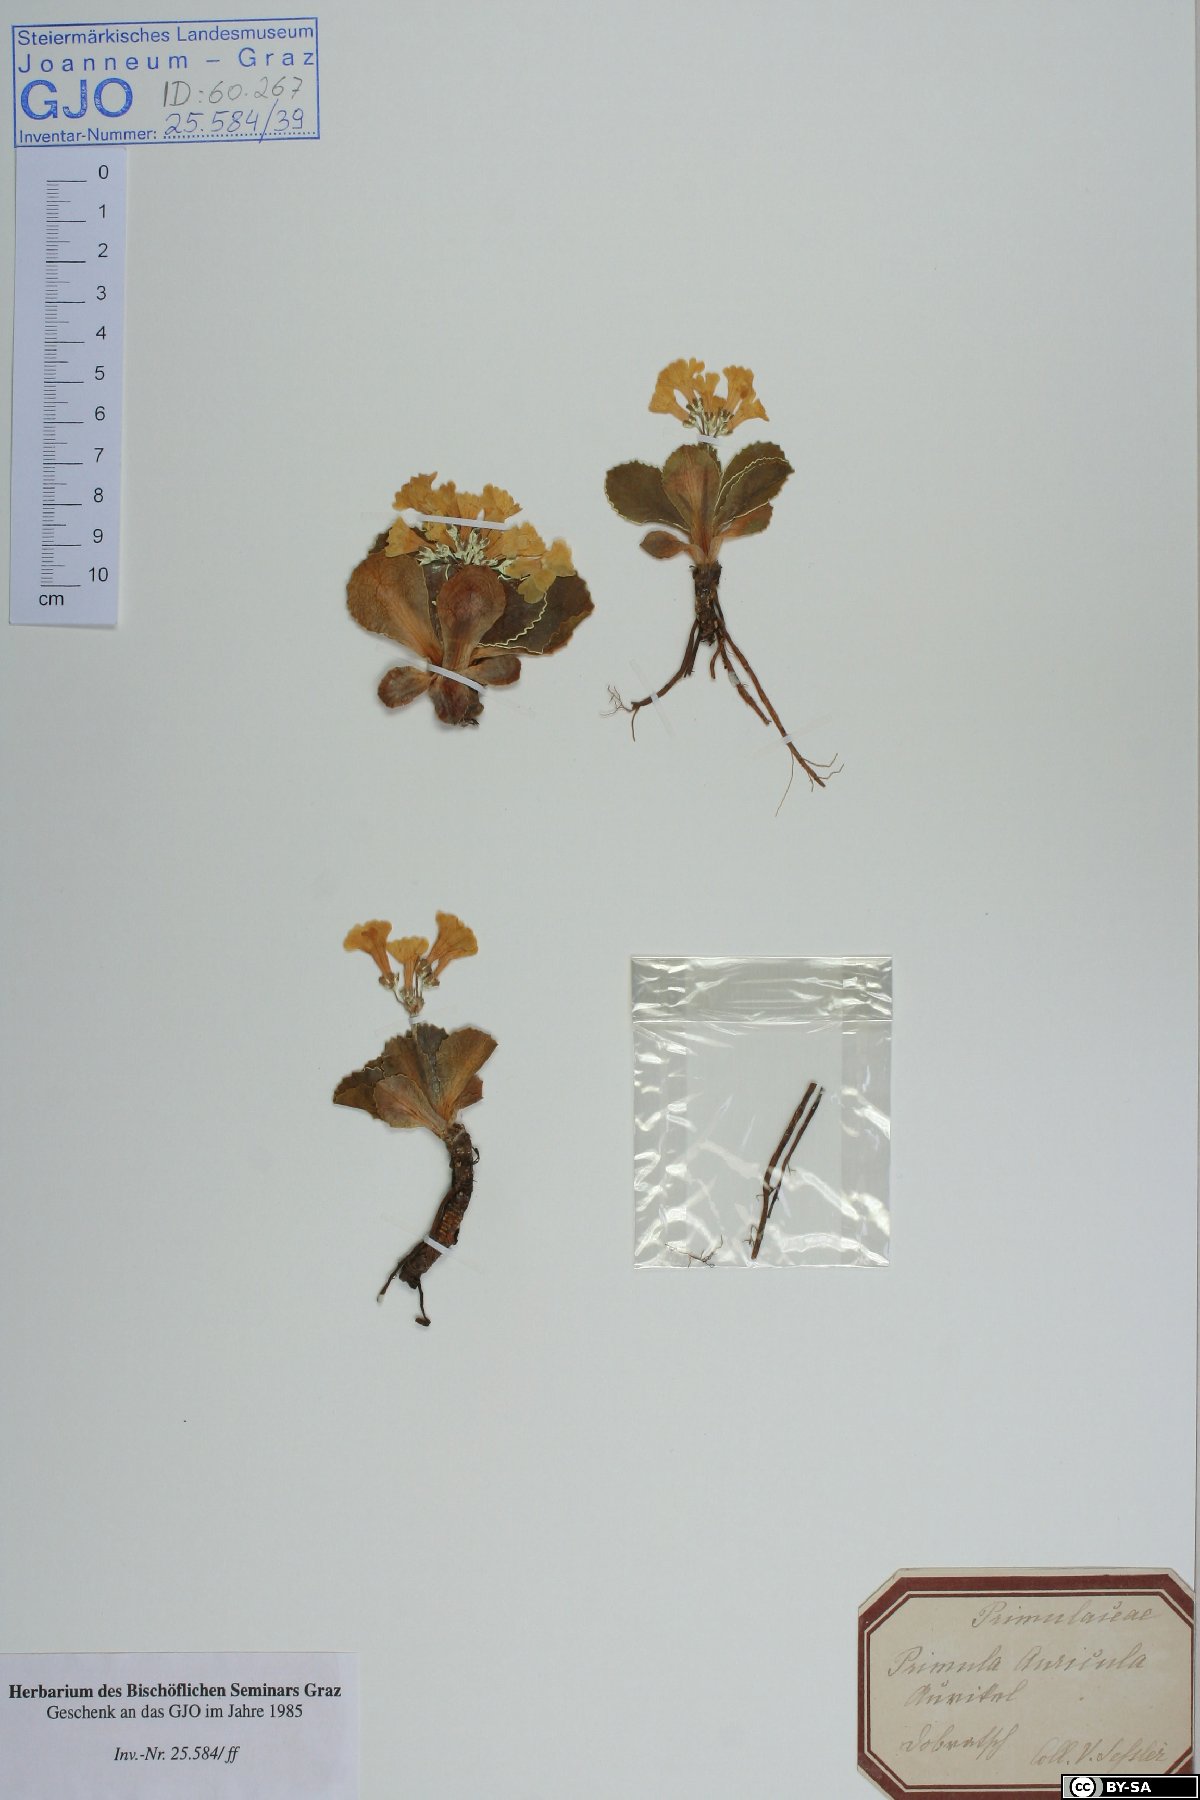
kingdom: Plantae
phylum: Tracheophyta
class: Magnoliopsida
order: Ericales
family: Primulaceae
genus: Primula
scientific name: Primula auricula
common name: Auricula
